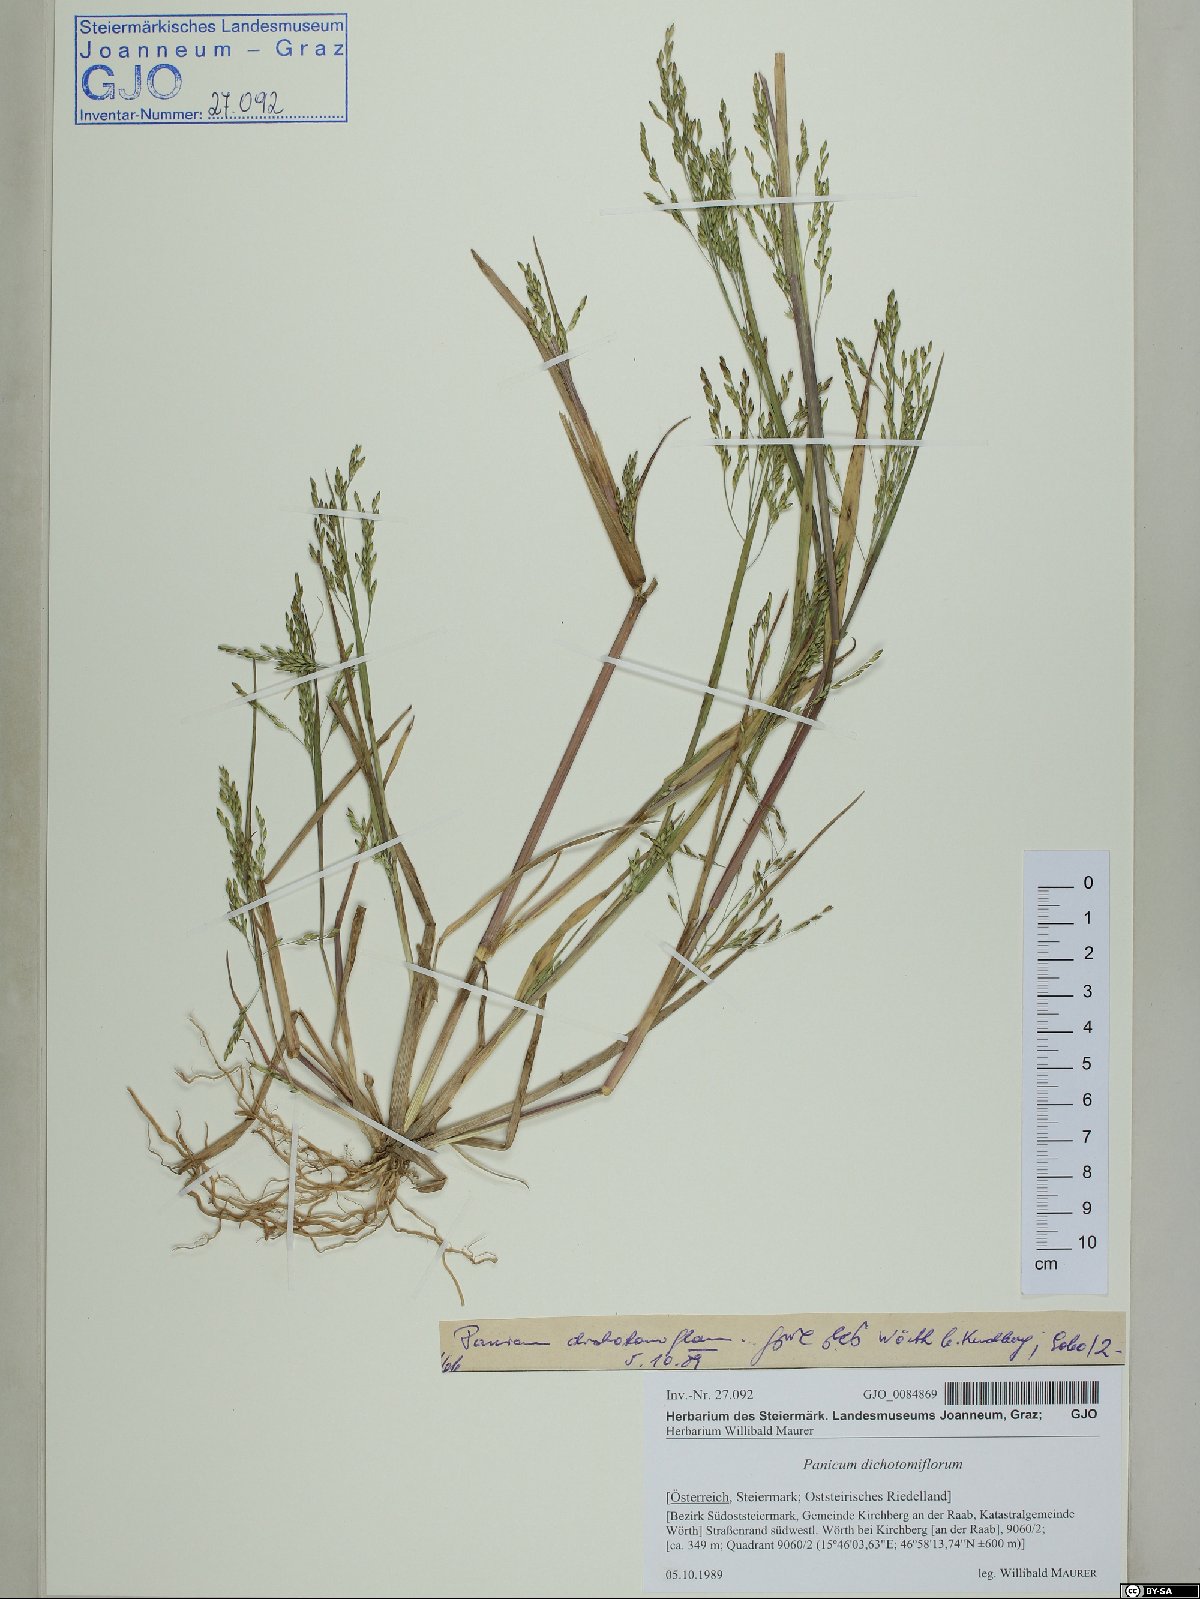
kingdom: Plantae
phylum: Tracheophyta
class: Liliopsida
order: Poales
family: Poaceae
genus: Panicum
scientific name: Panicum dichotomiflorum
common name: Autumn millet
